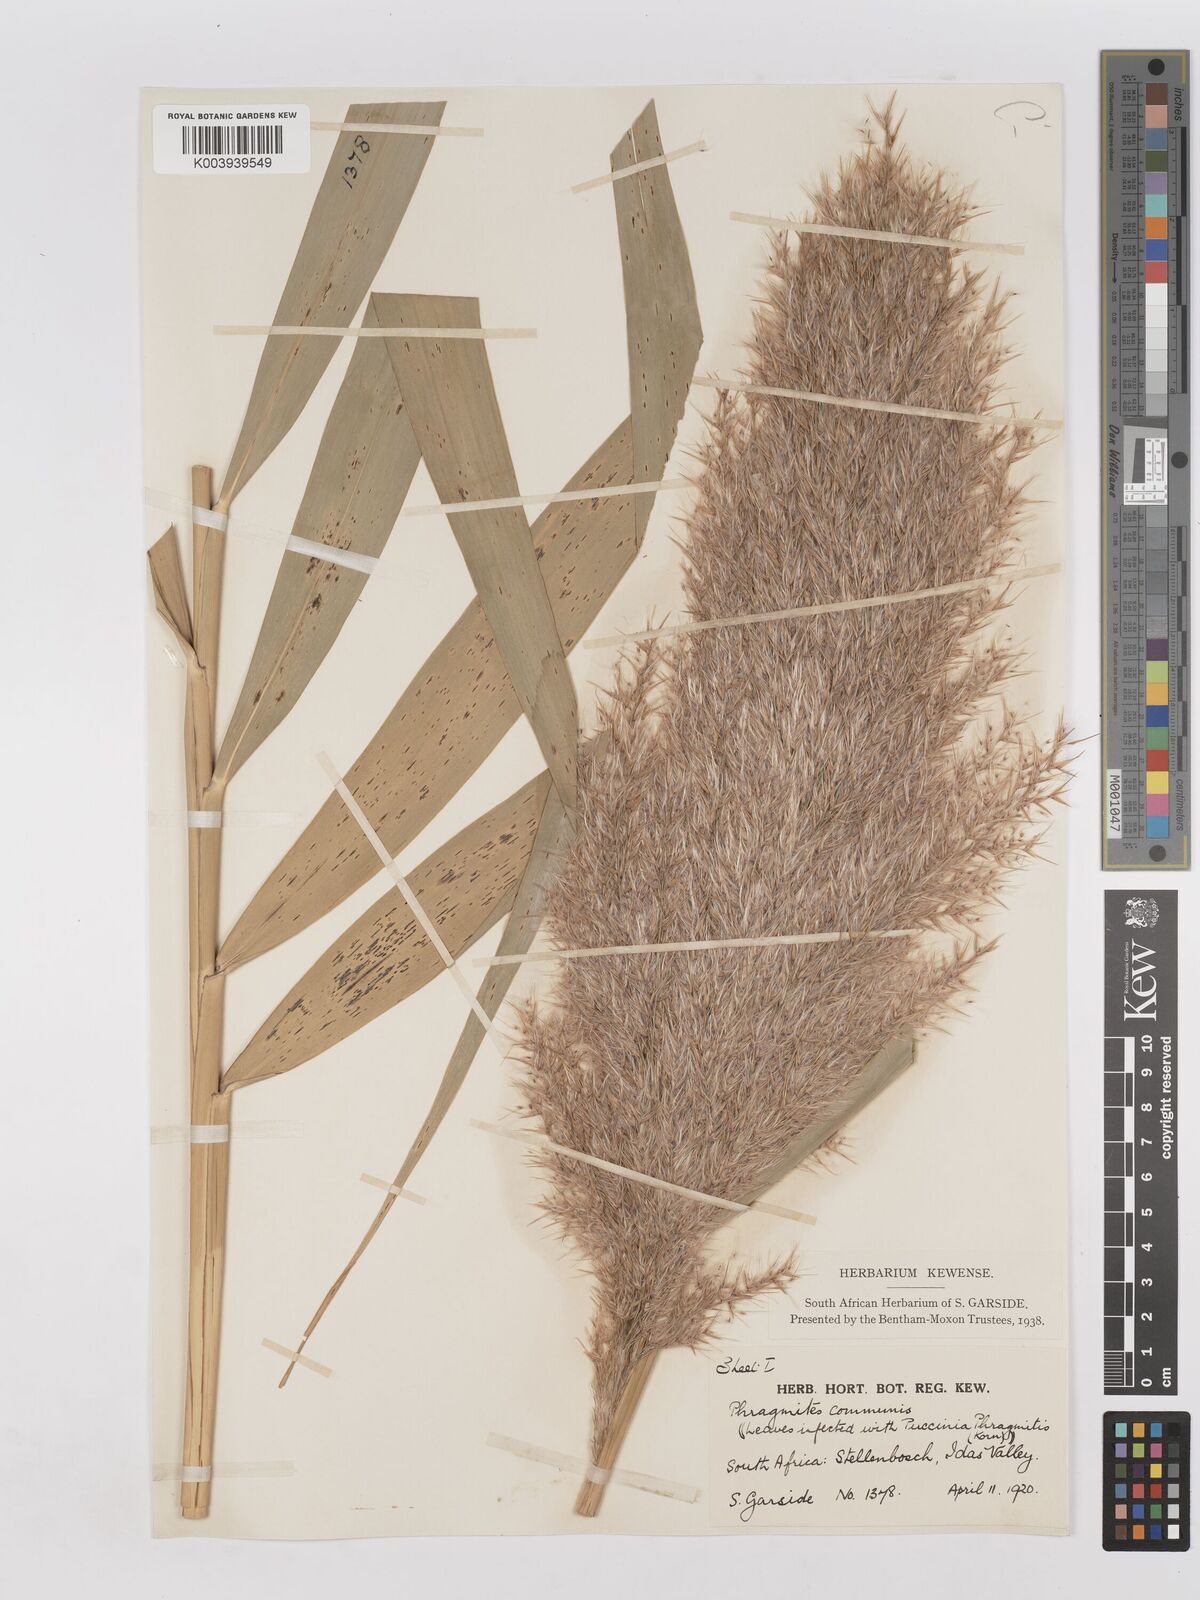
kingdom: Plantae
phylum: Tracheophyta
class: Liliopsida
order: Poales
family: Poaceae
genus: Phragmites
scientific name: Phragmites australis
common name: Common reed
